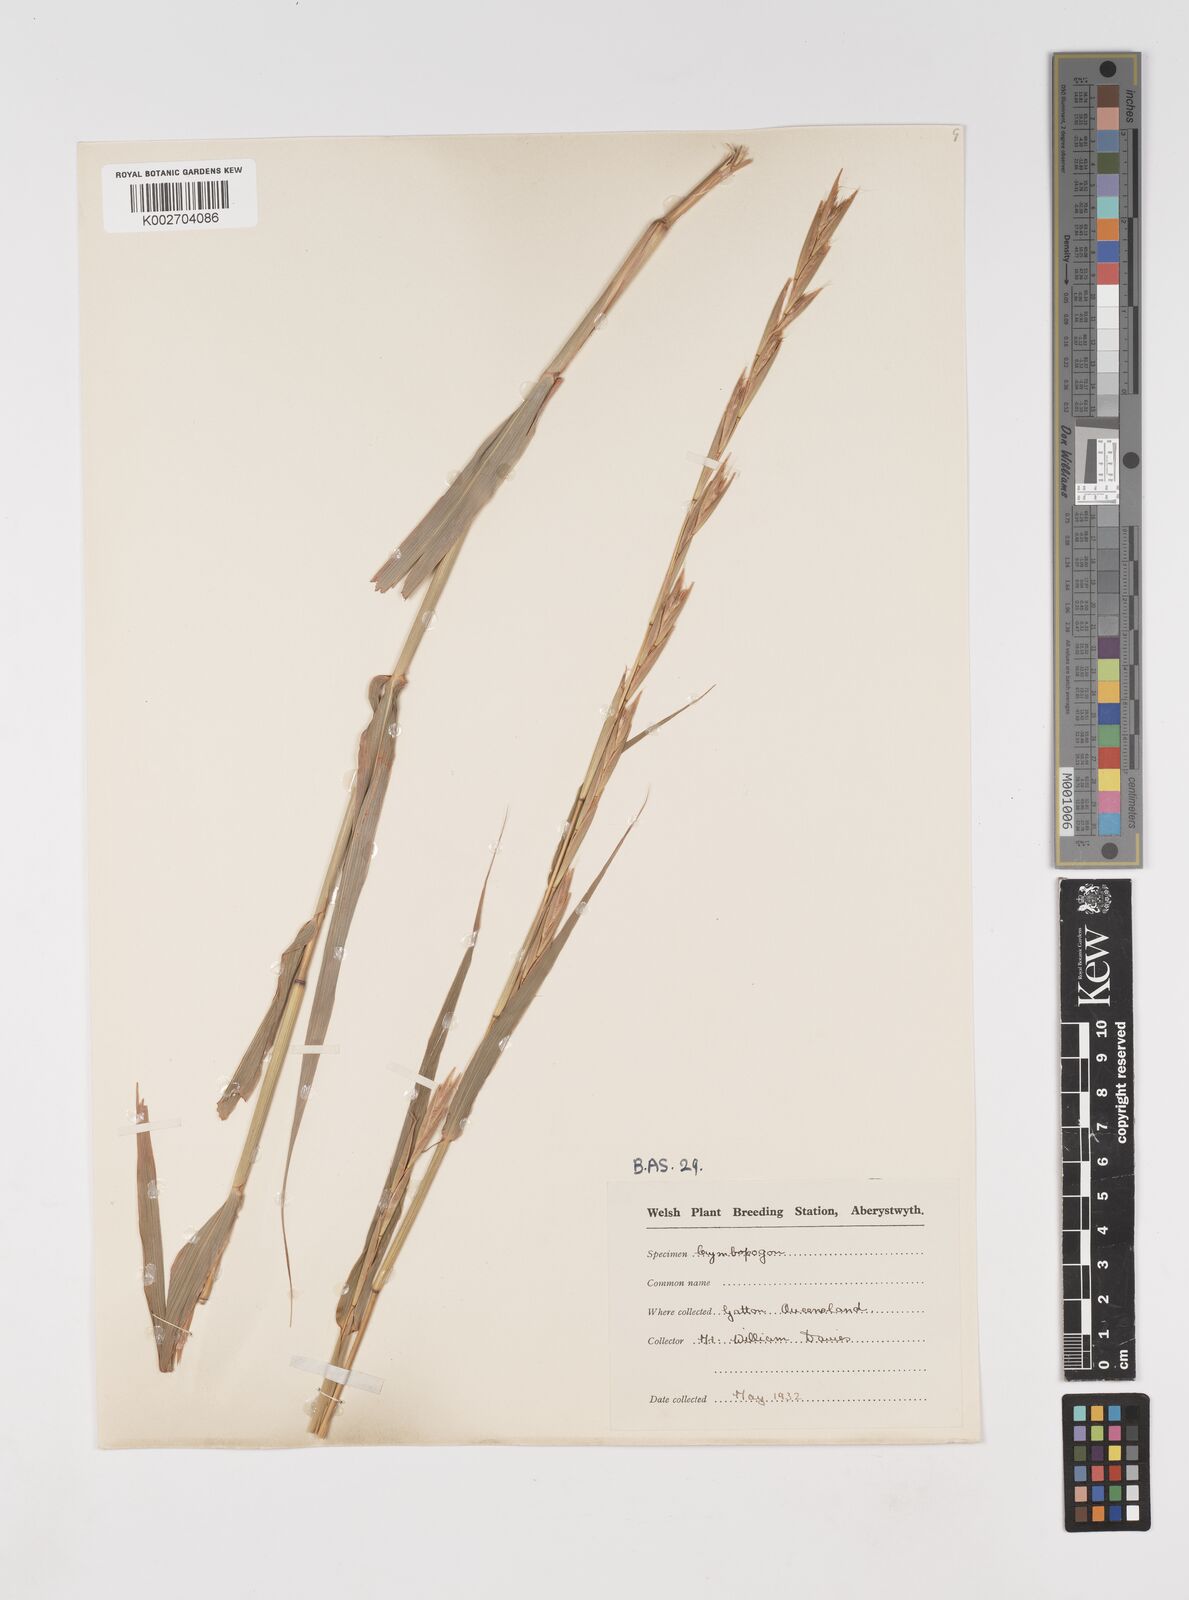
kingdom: Plantae
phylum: Tracheophyta
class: Liliopsida
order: Poales
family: Poaceae
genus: Cymbopogon
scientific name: Cymbopogon martini
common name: Ginger grass
